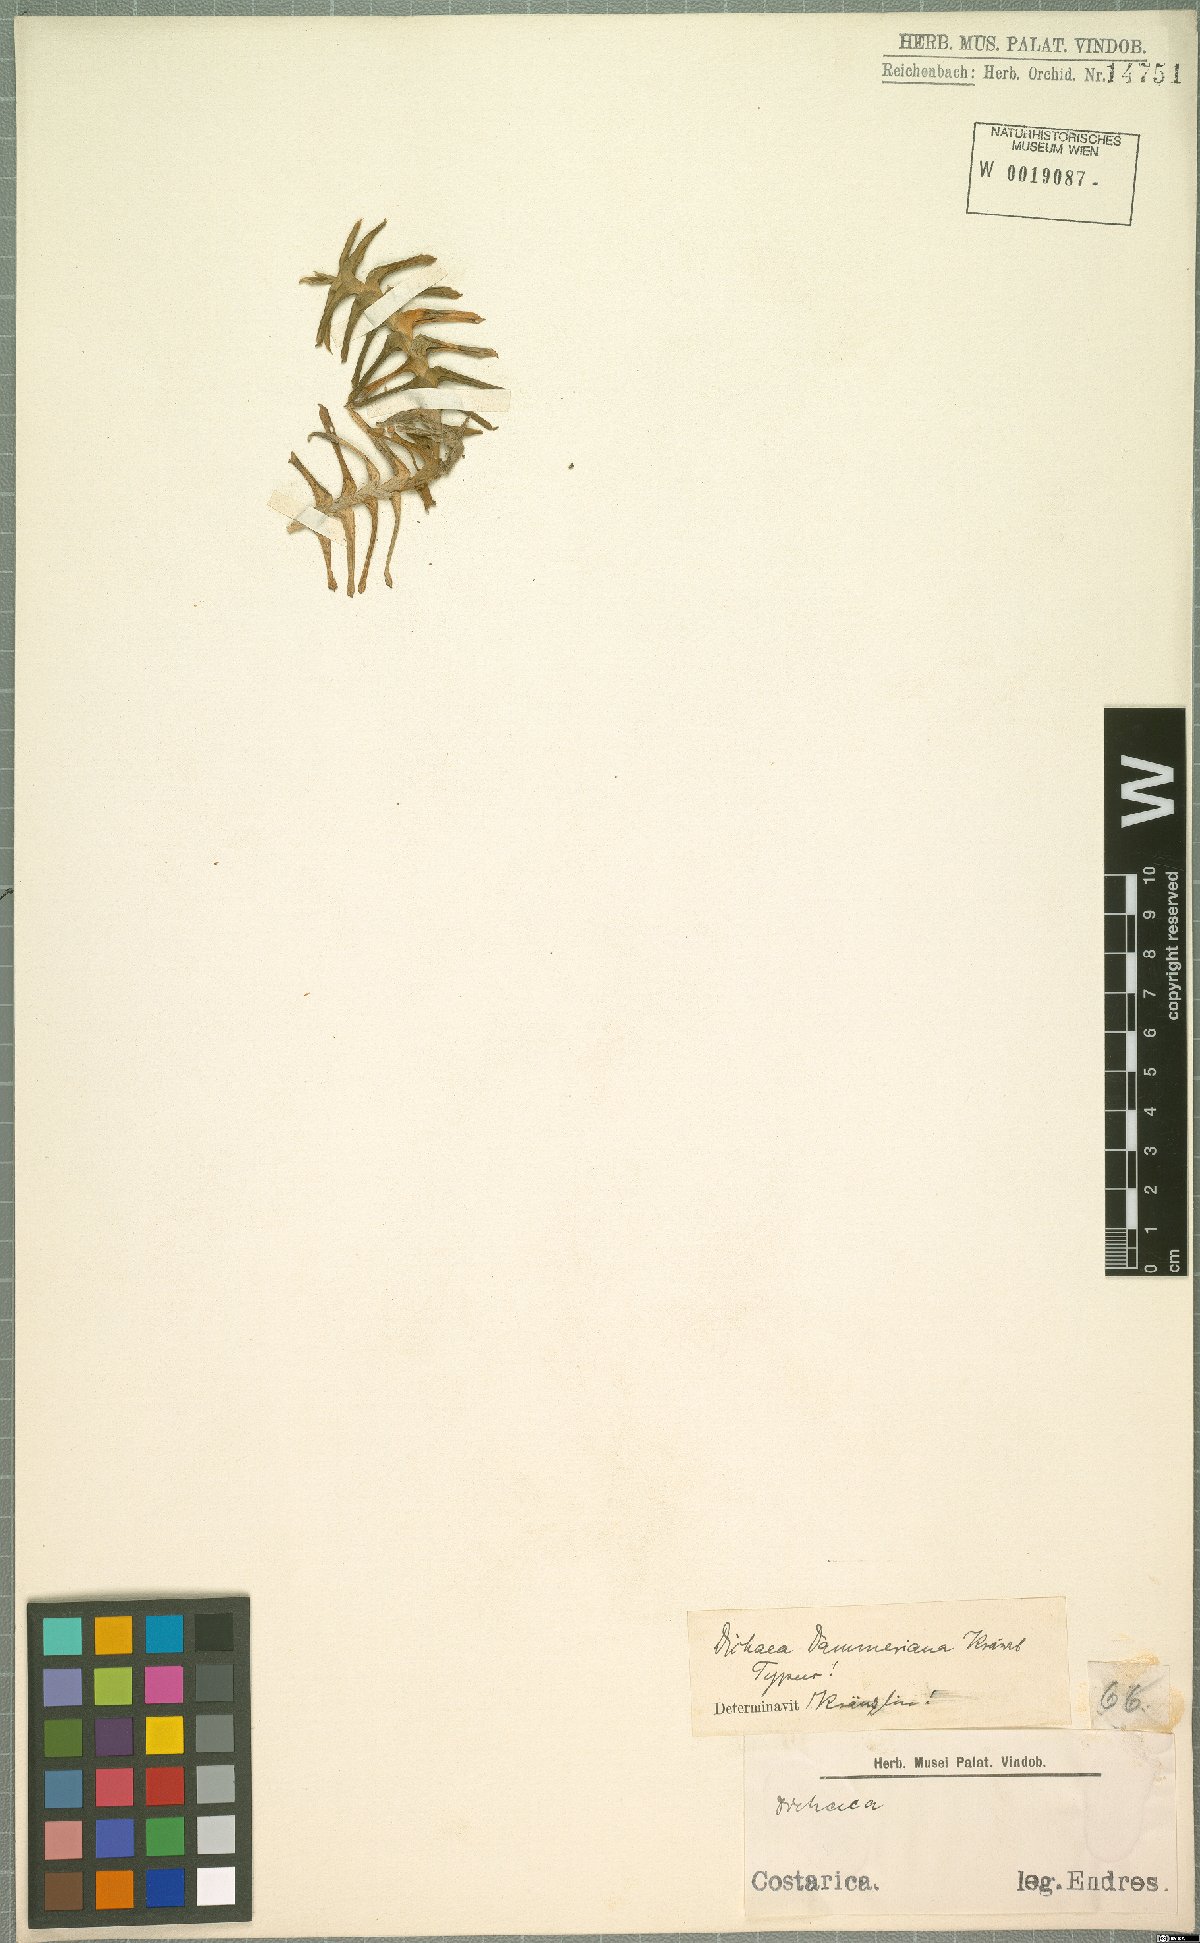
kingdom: Plantae
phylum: Tracheophyta
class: Liliopsida
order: Asparagales
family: Orchidaceae
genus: Dichaea
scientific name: Dichaea dammeriana
